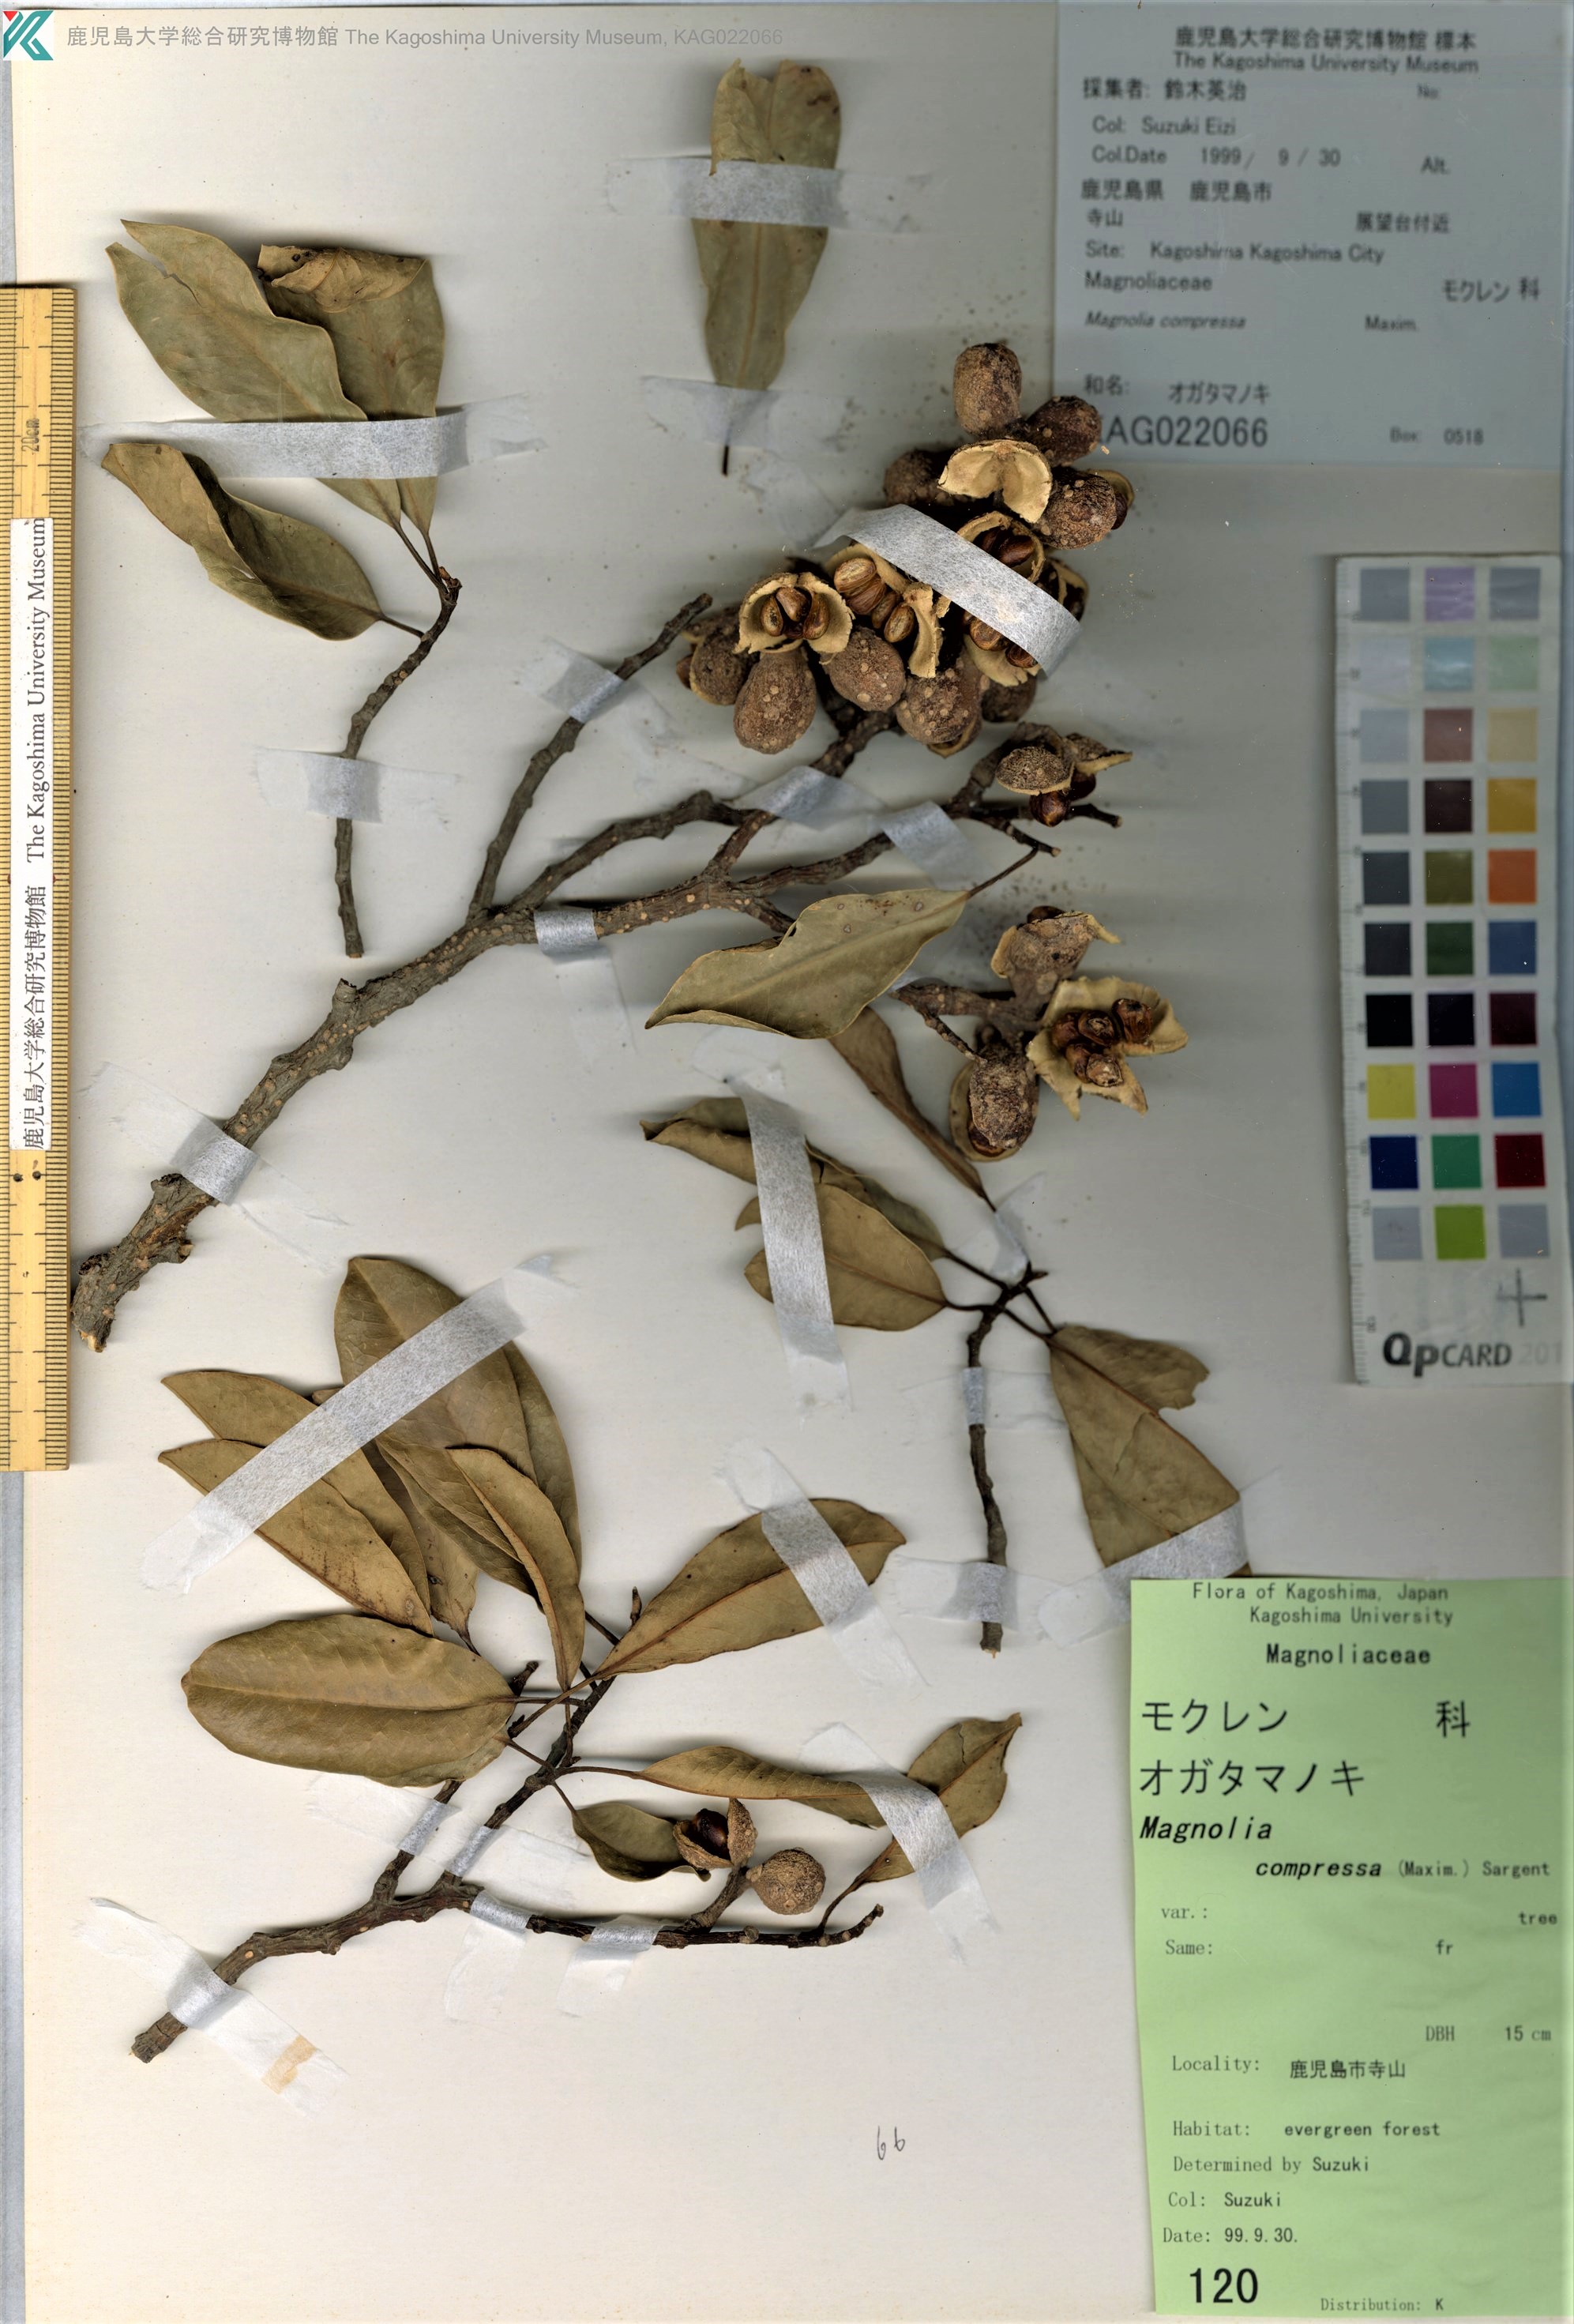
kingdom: Plantae
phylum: Tracheophyta
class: Magnoliopsida
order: Magnoliales
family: Magnoliaceae
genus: Magnolia
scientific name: Magnolia compressa
